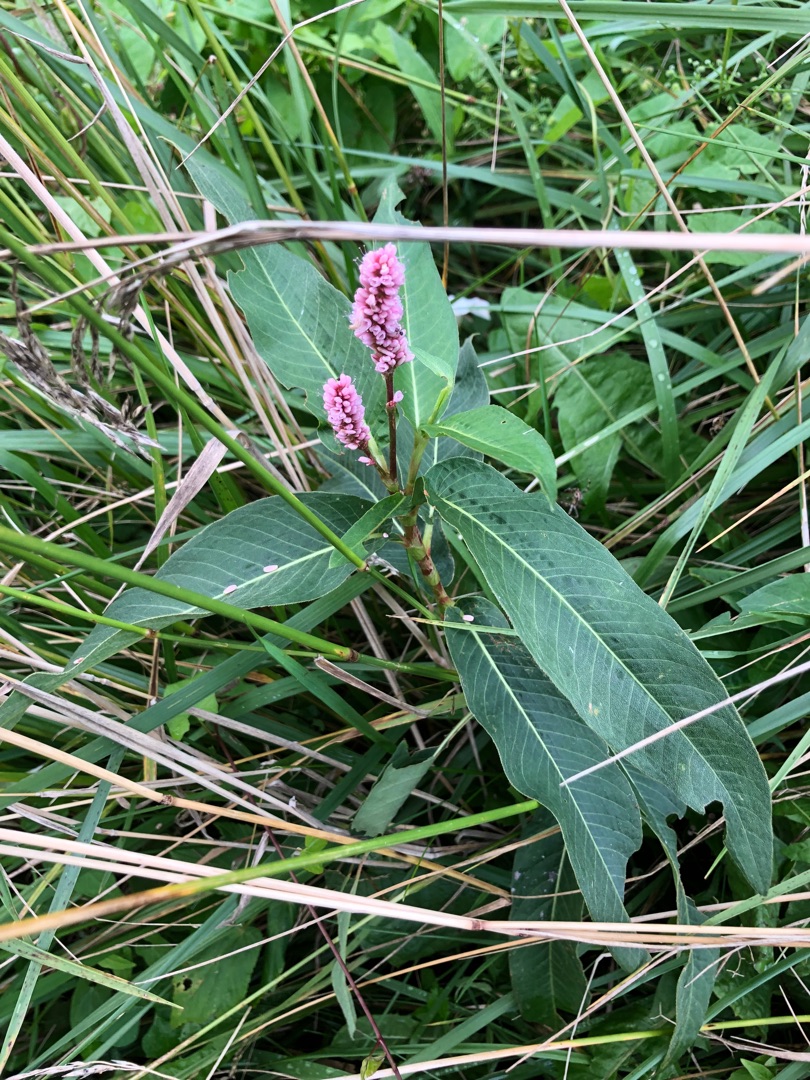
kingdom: Plantae
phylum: Tracheophyta
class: Magnoliopsida
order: Caryophyllales
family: Polygonaceae
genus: Persicaria
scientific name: Persicaria amphibia
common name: Vand-pileurt
